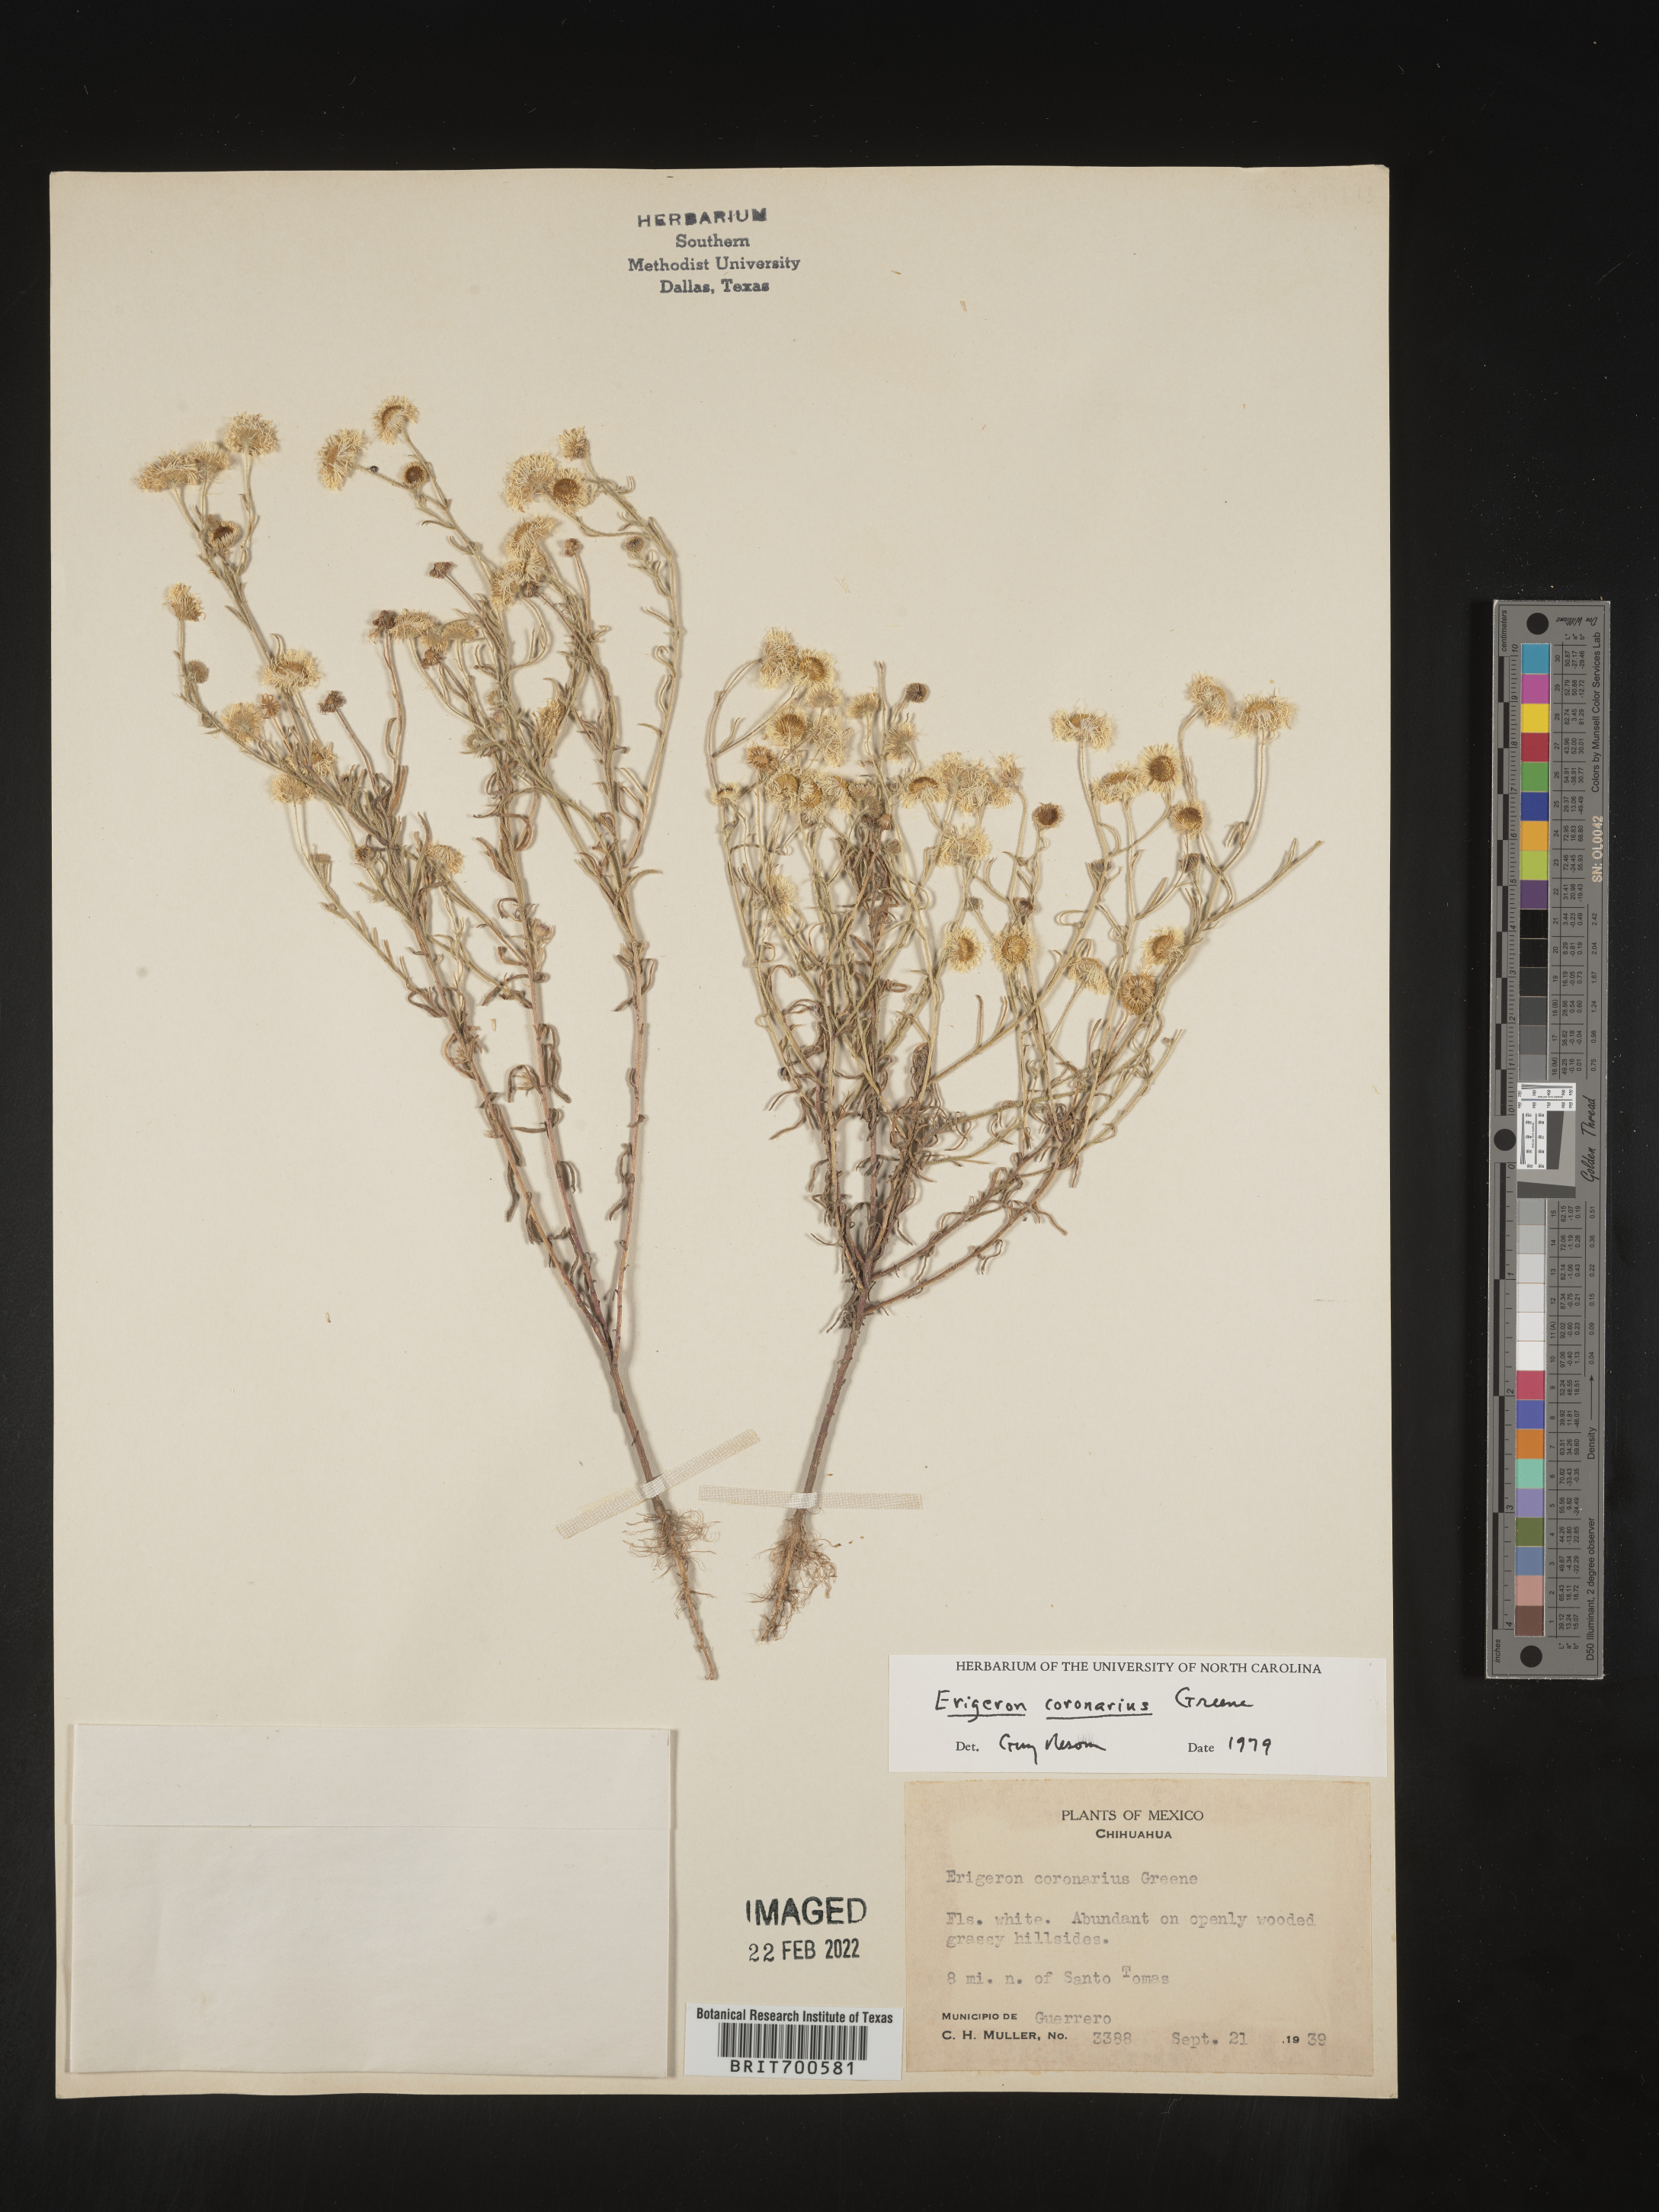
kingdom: Plantae
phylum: Tracheophyta
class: Magnoliopsida
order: Asterales
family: Asteraceae
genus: Erigeron
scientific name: Erigeron coronarius
